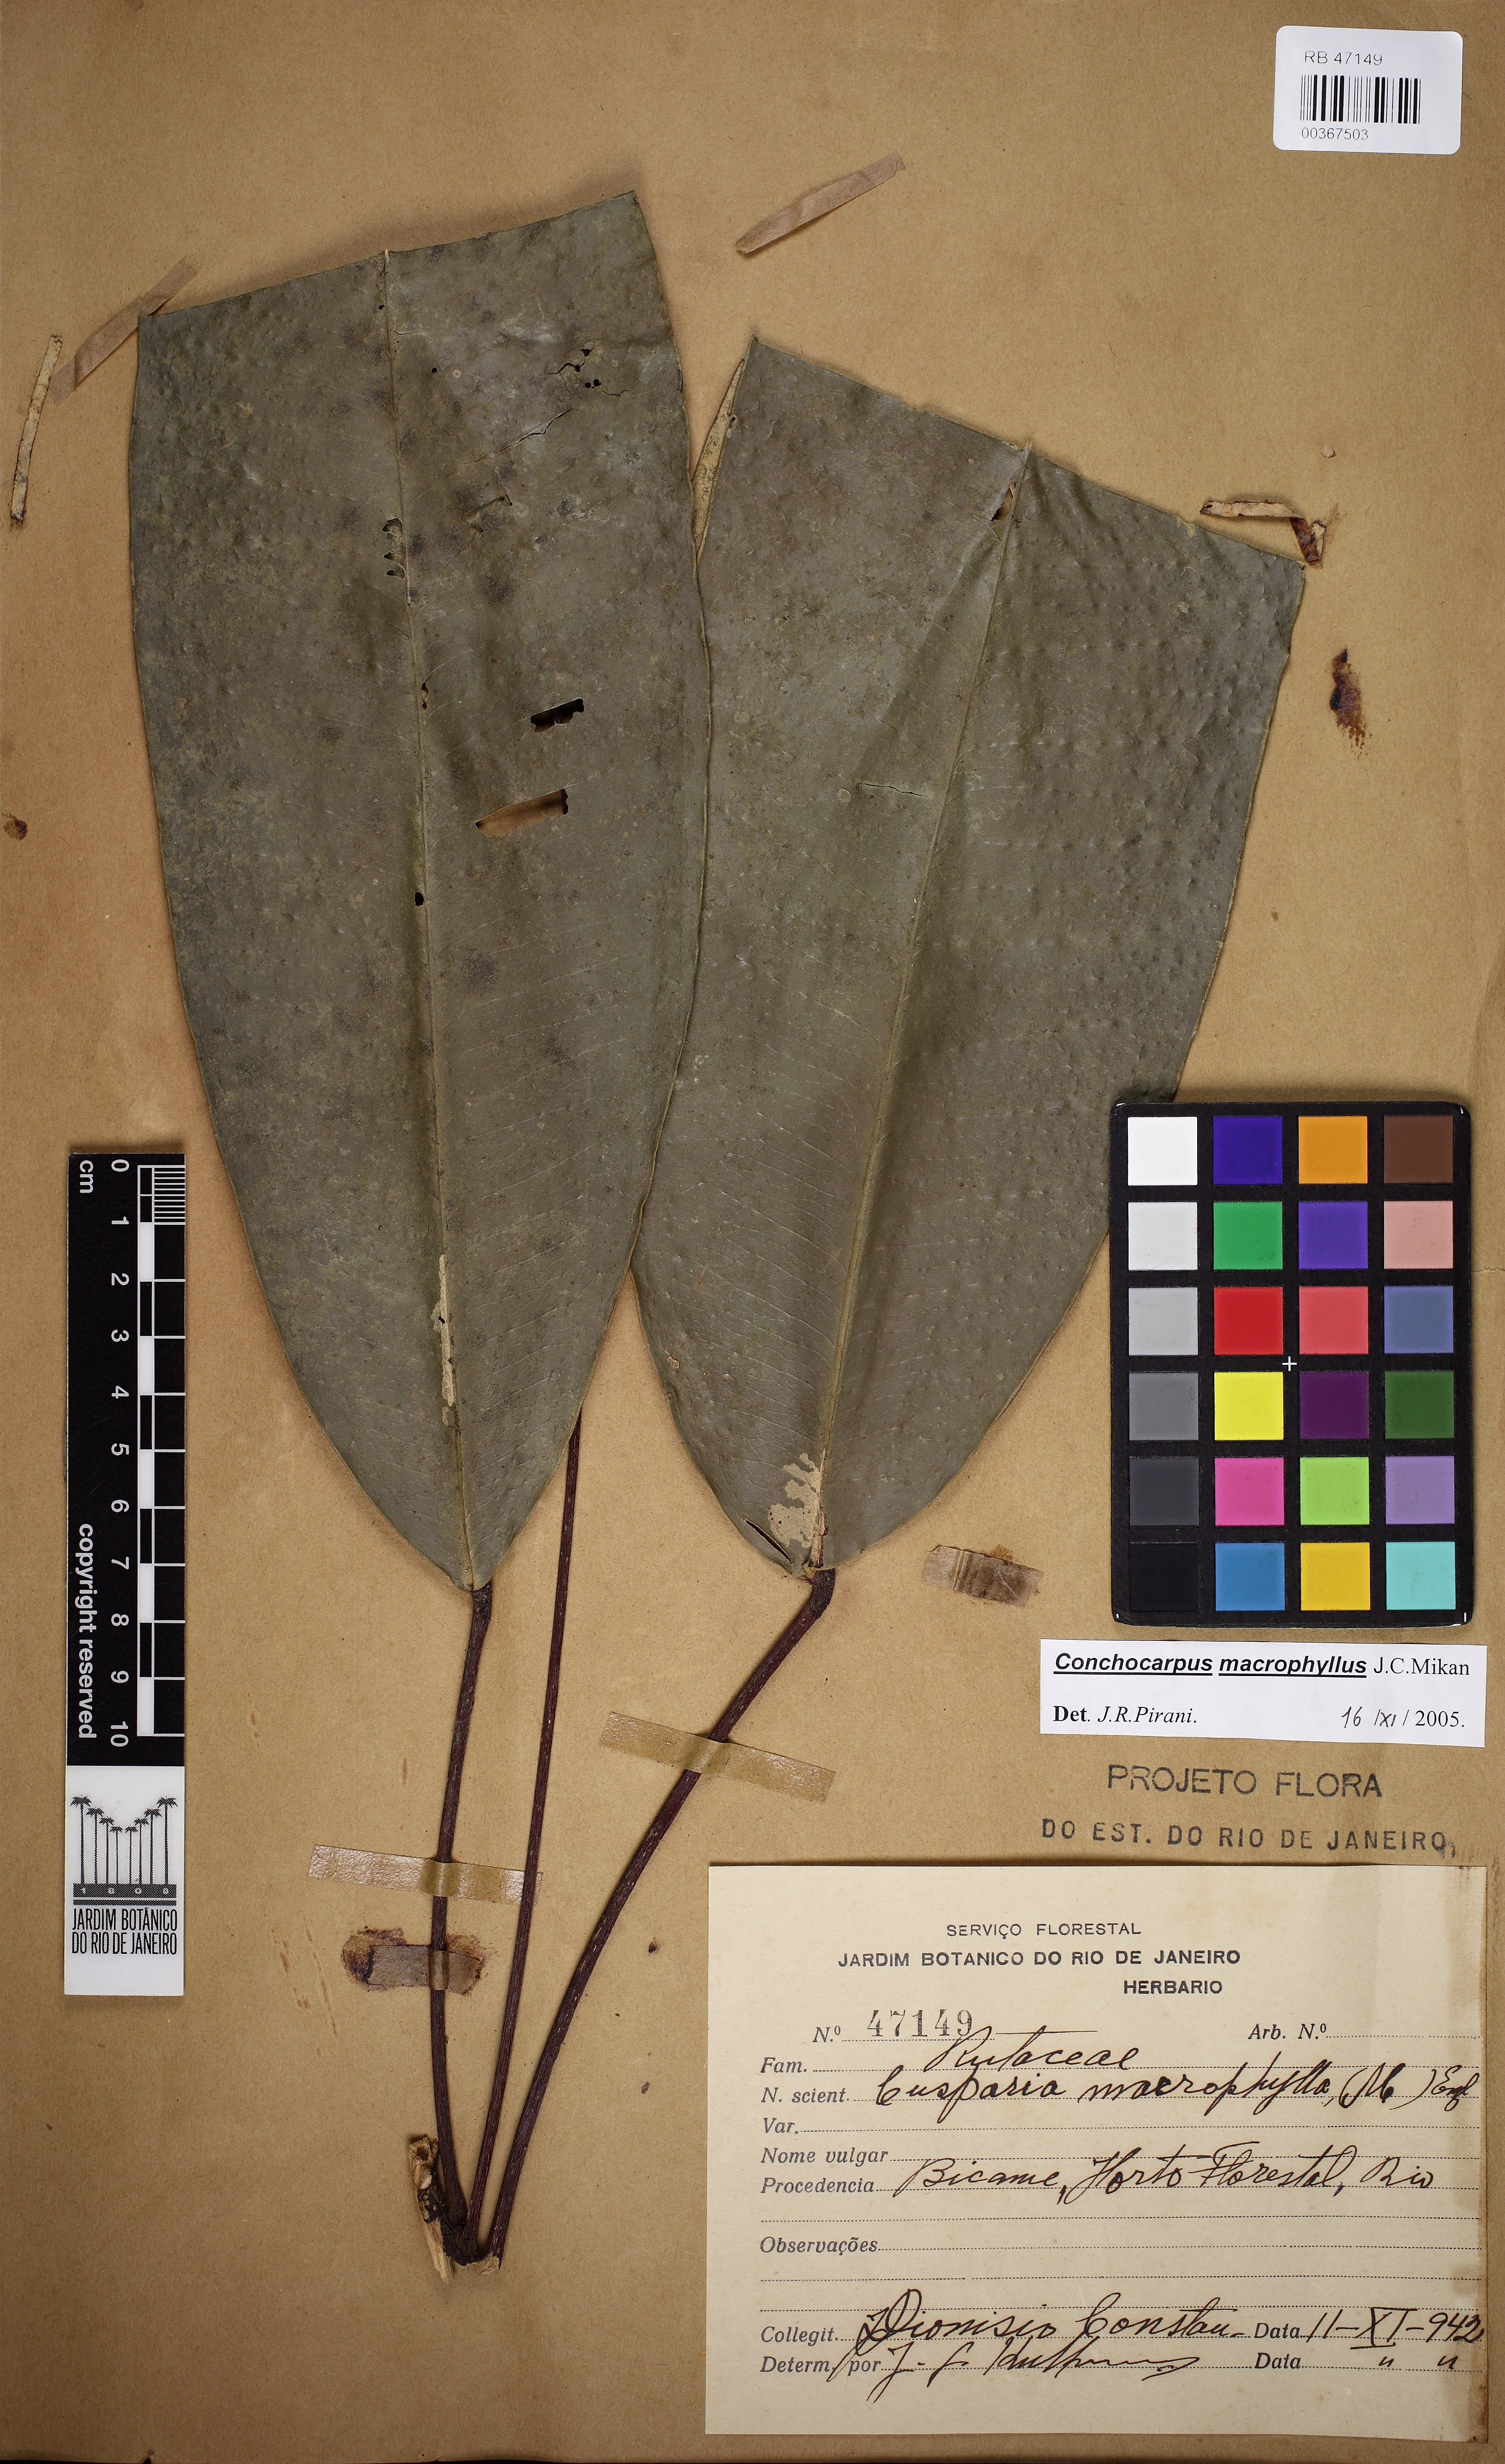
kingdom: Plantae
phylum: Tracheophyta
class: Magnoliopsida
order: Sapindales
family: Rutaceae
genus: Conchocarpus
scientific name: Conchocarpus macrocarpus
